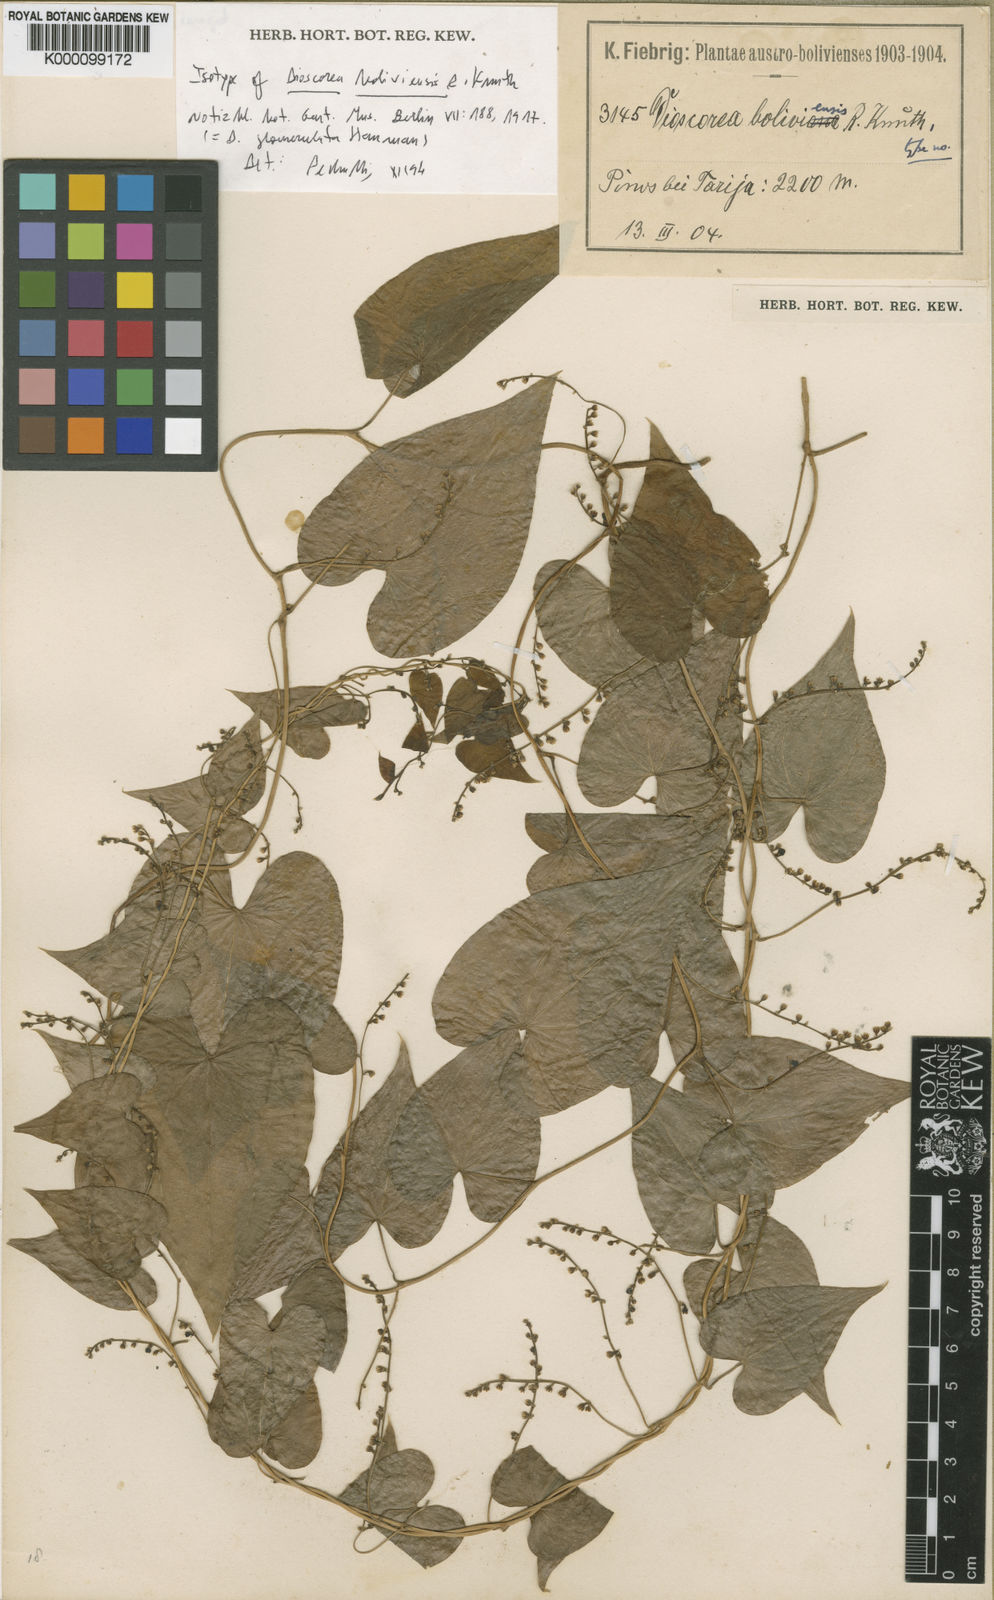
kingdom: Plantae
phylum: Tracheophyta
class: Liliopsida
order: Dioscoreales
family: Dioscoreaceae
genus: Dioscorea
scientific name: Dioscorea glomerulata
